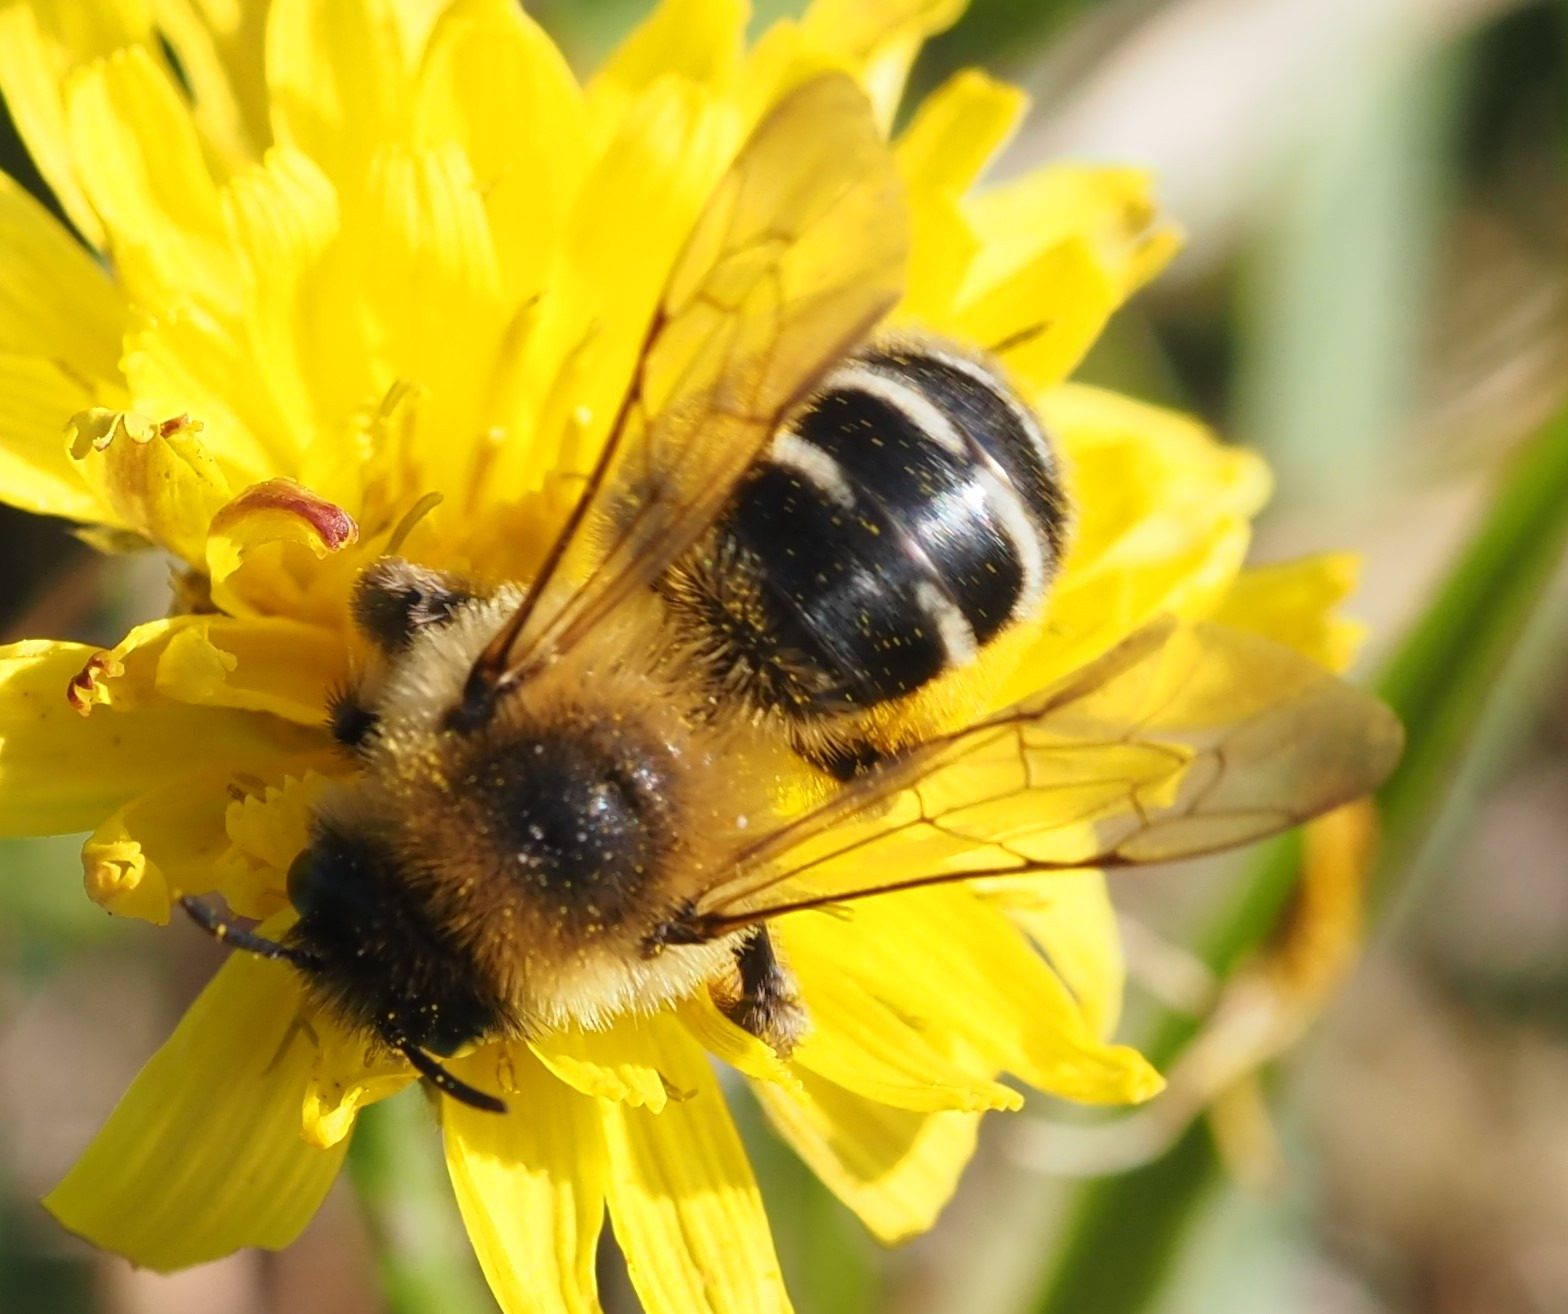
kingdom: Animalia
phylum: Arthropoda
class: Insecta
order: Hymenoptera
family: Melittidae
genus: Dasypoda
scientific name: Dasypoda hirtipes
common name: Pragtbuksebi
